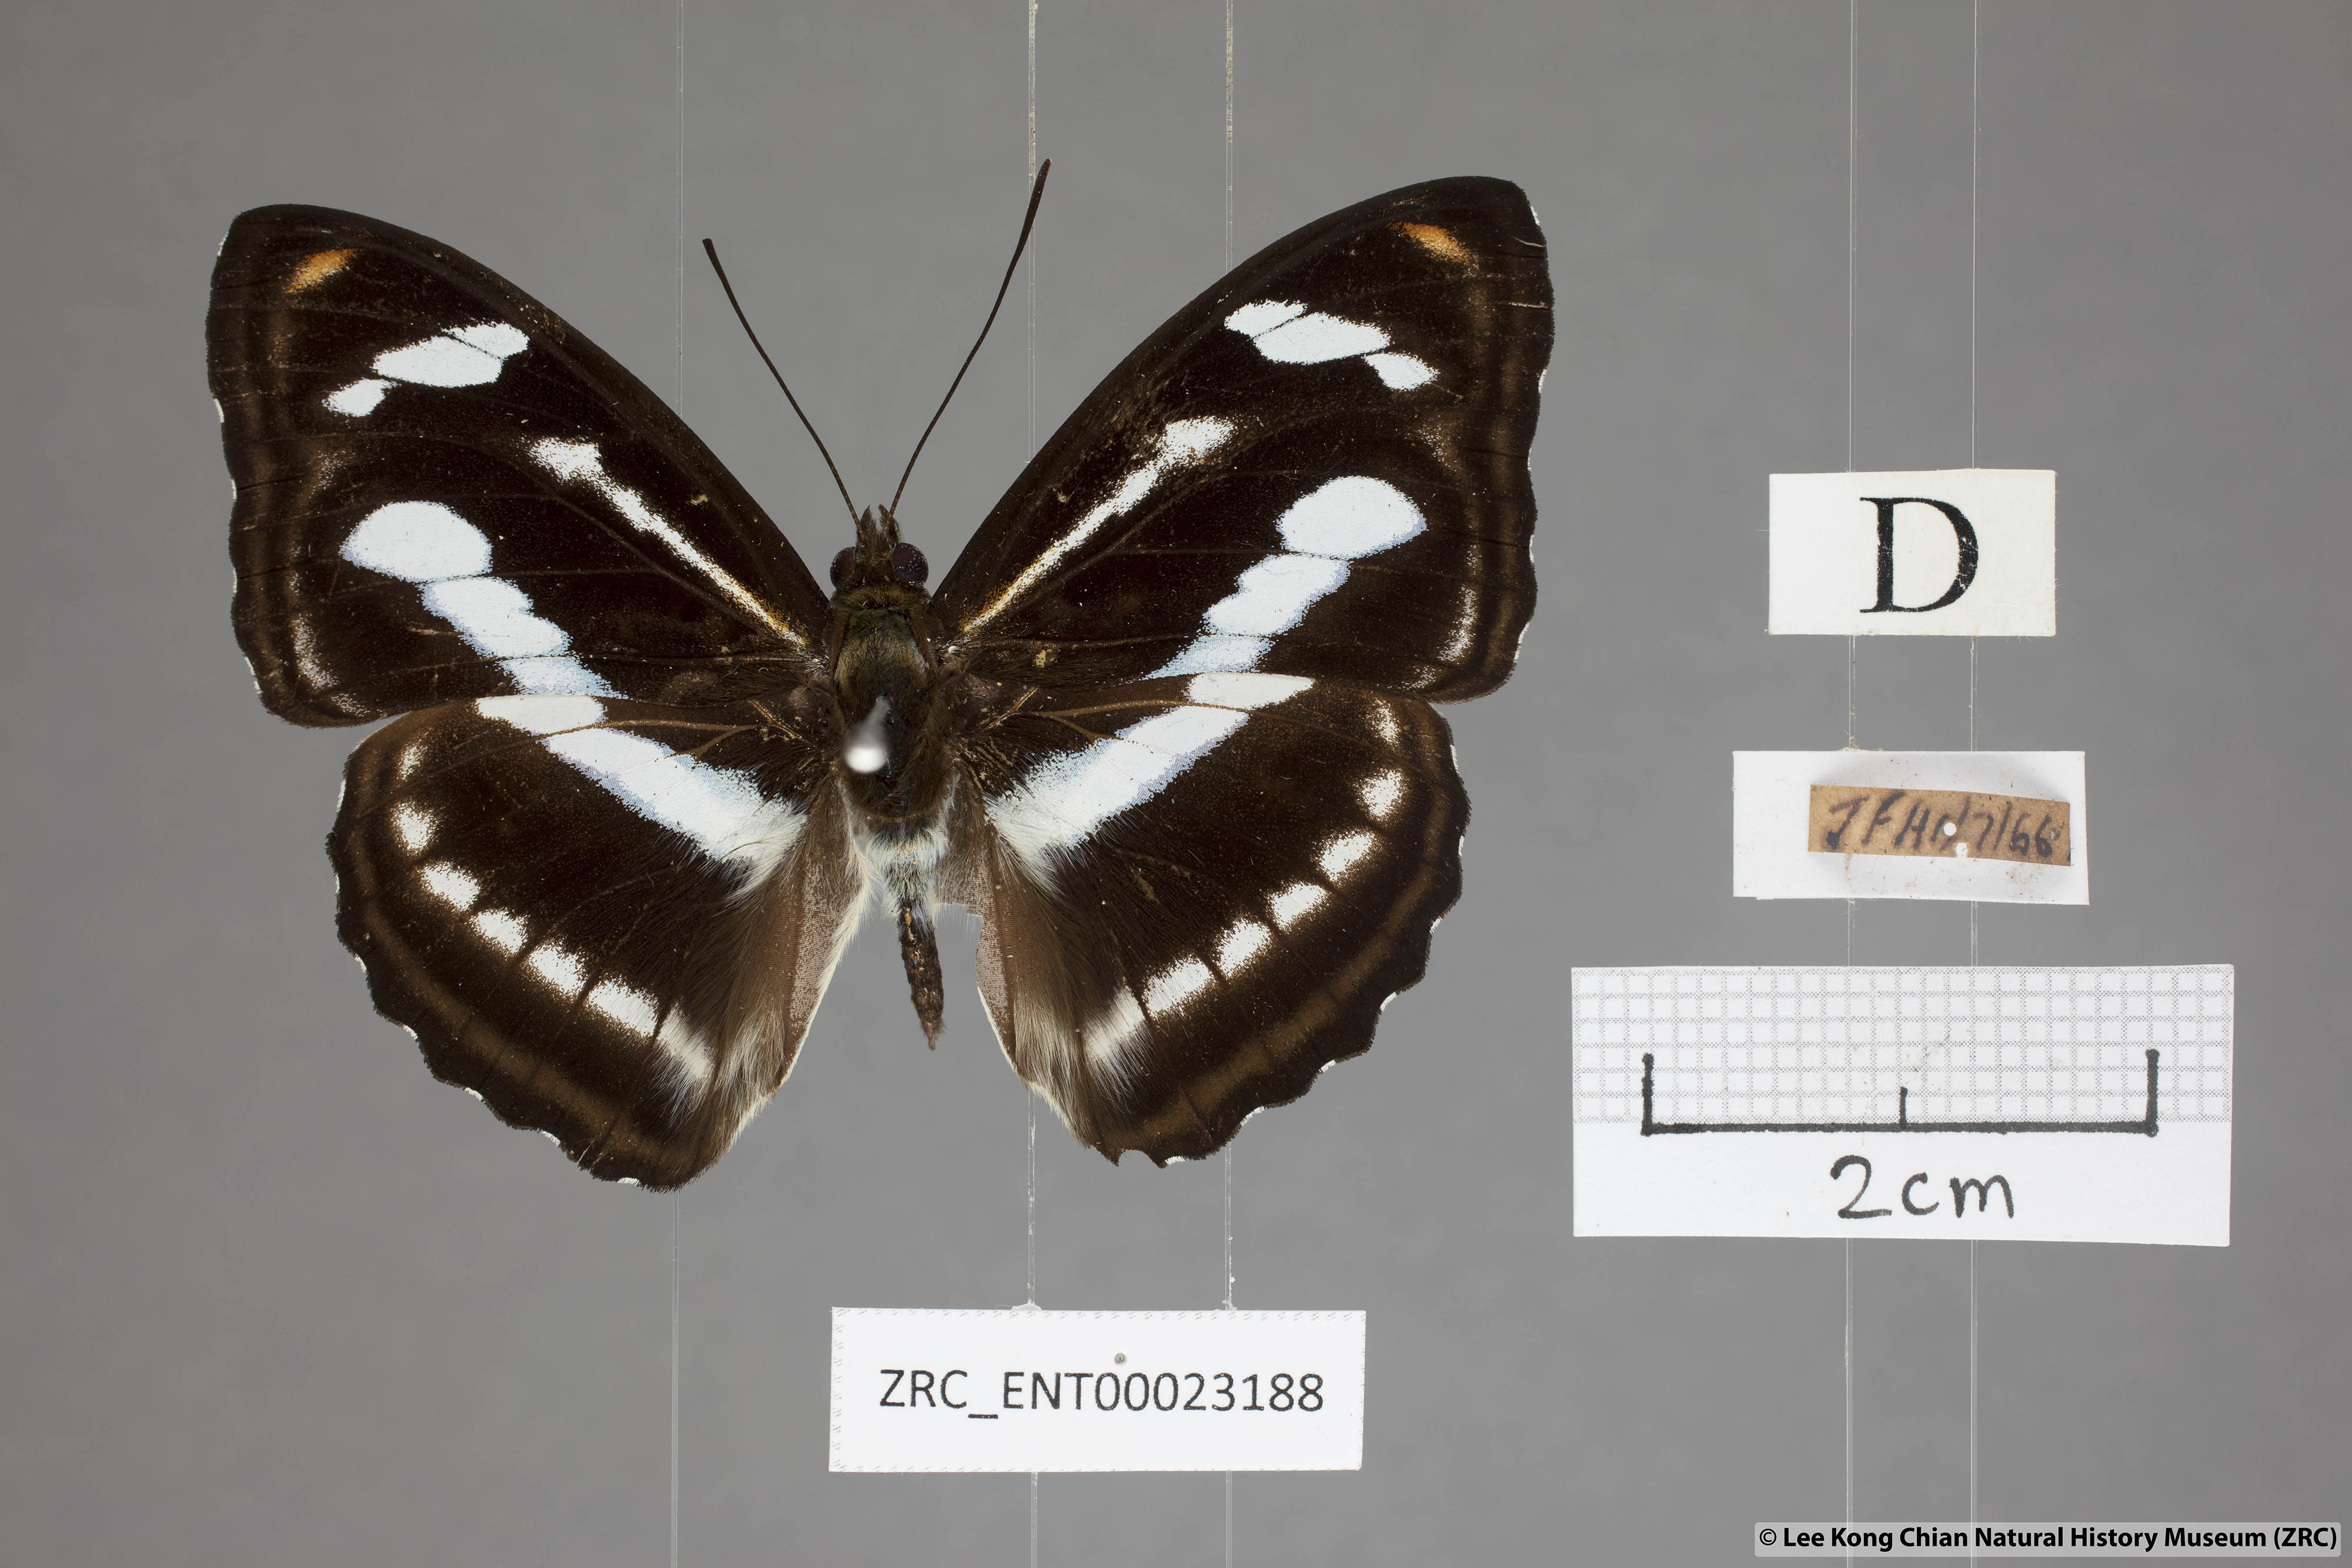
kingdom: Animalia
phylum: Arthropoda
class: Insecta
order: Lepidoptera
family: Nymphalidae
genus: Pantoporia
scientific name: Pantoporia cama
